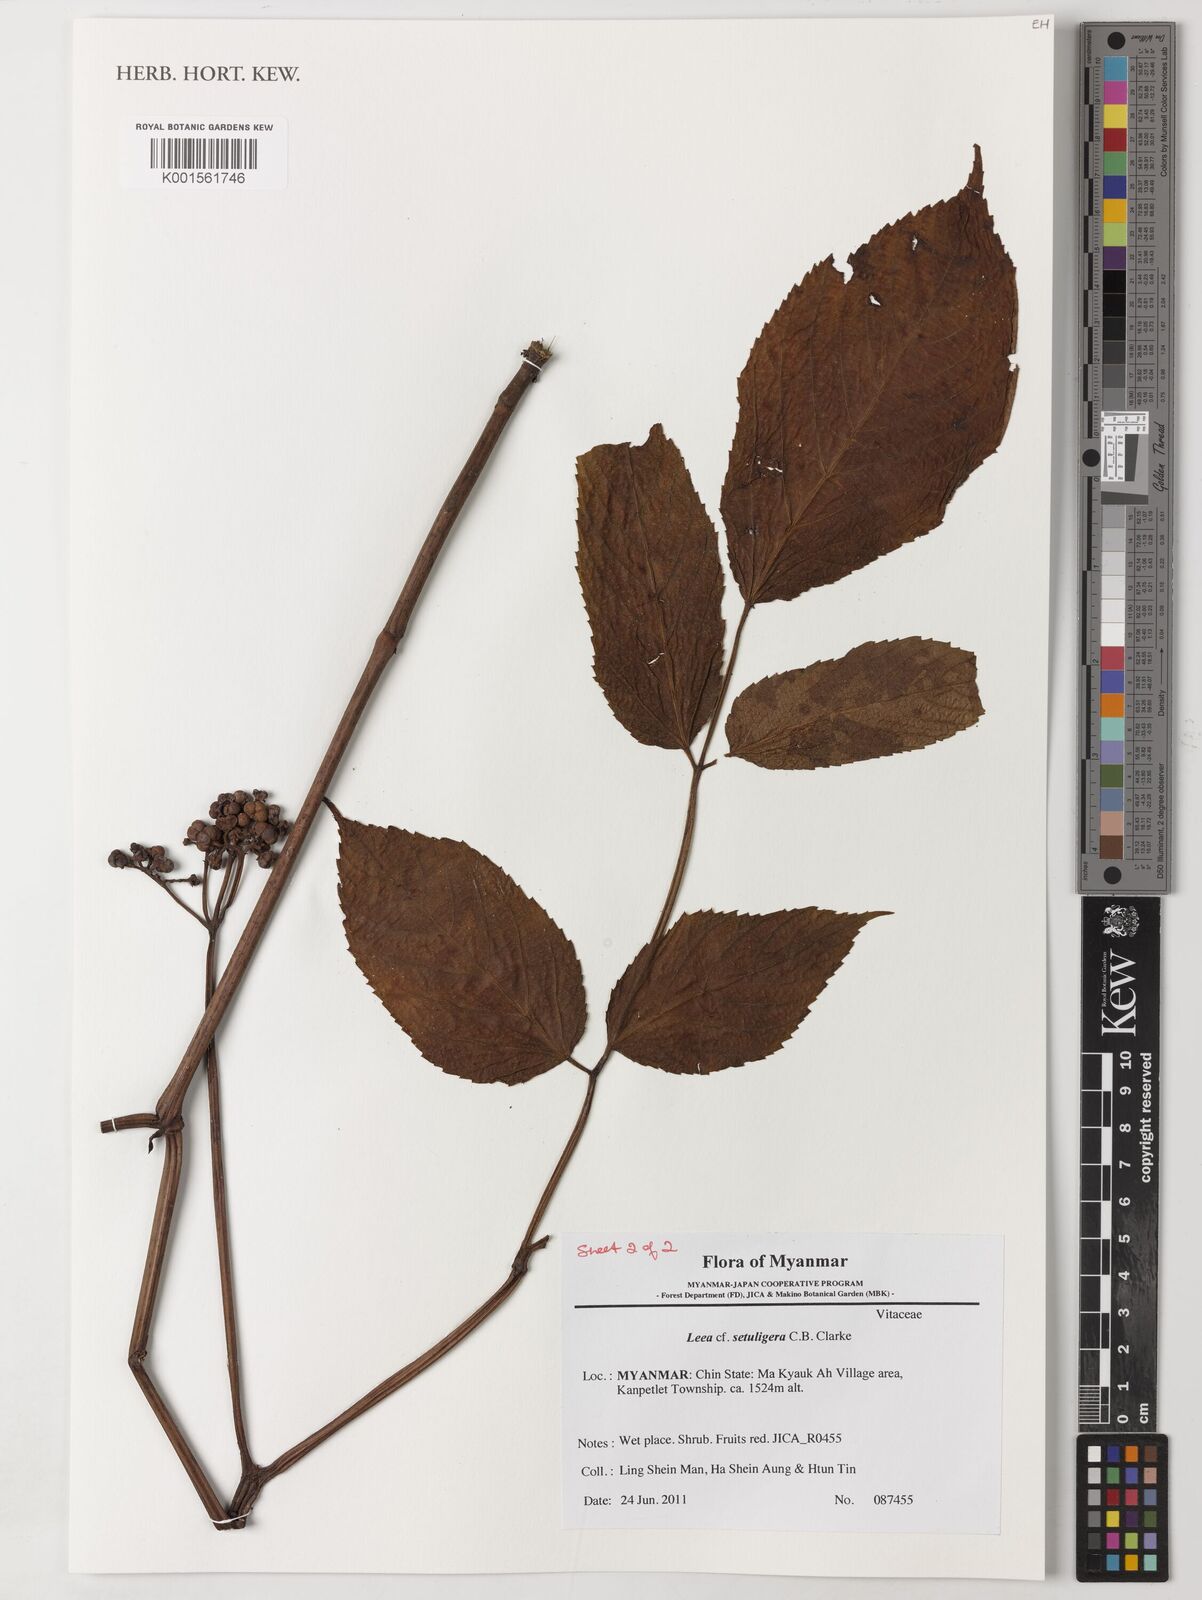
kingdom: Plantae
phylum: Tracheophyta
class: Magnoliopsida
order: Vitales
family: Vitaceae
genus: Leea
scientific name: Leea setuligera
